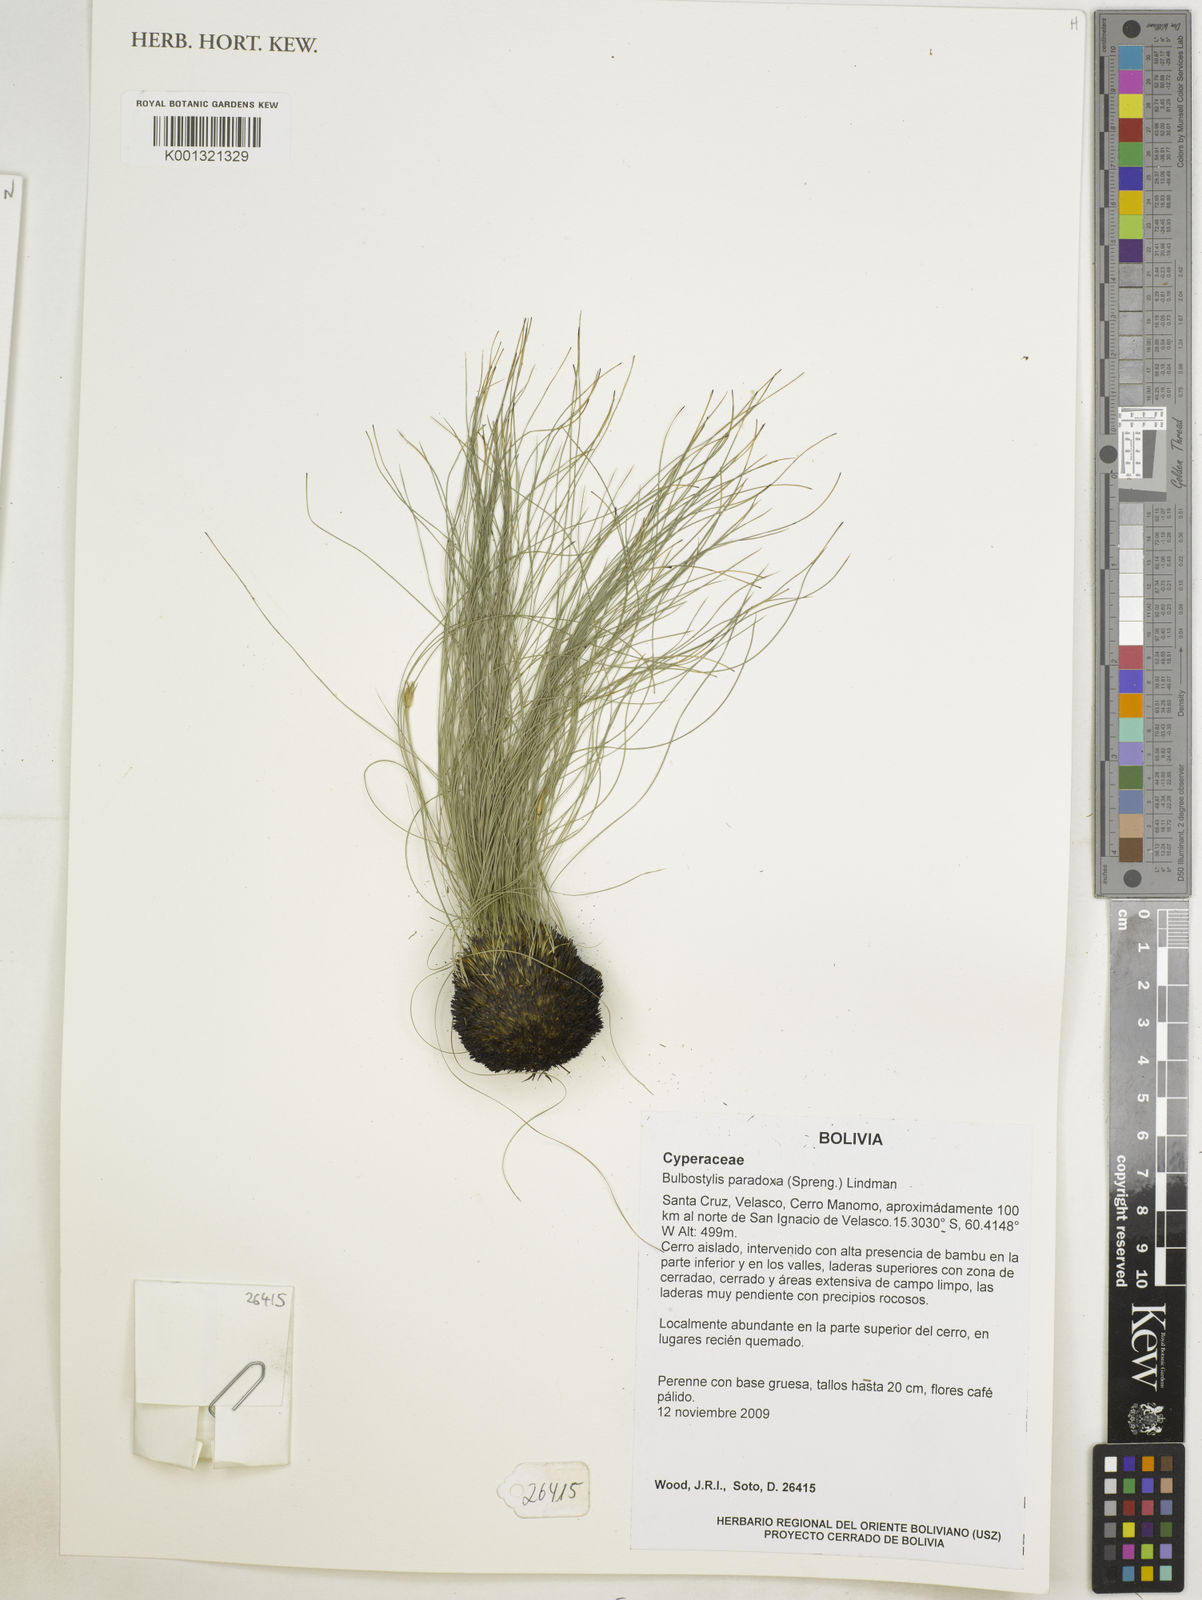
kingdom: Plantae
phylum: Tracheophyta
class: Liliopsida
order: Poales
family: Cyperaceae
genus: Bulbostylis
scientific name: Bulbostylis paradoxa
